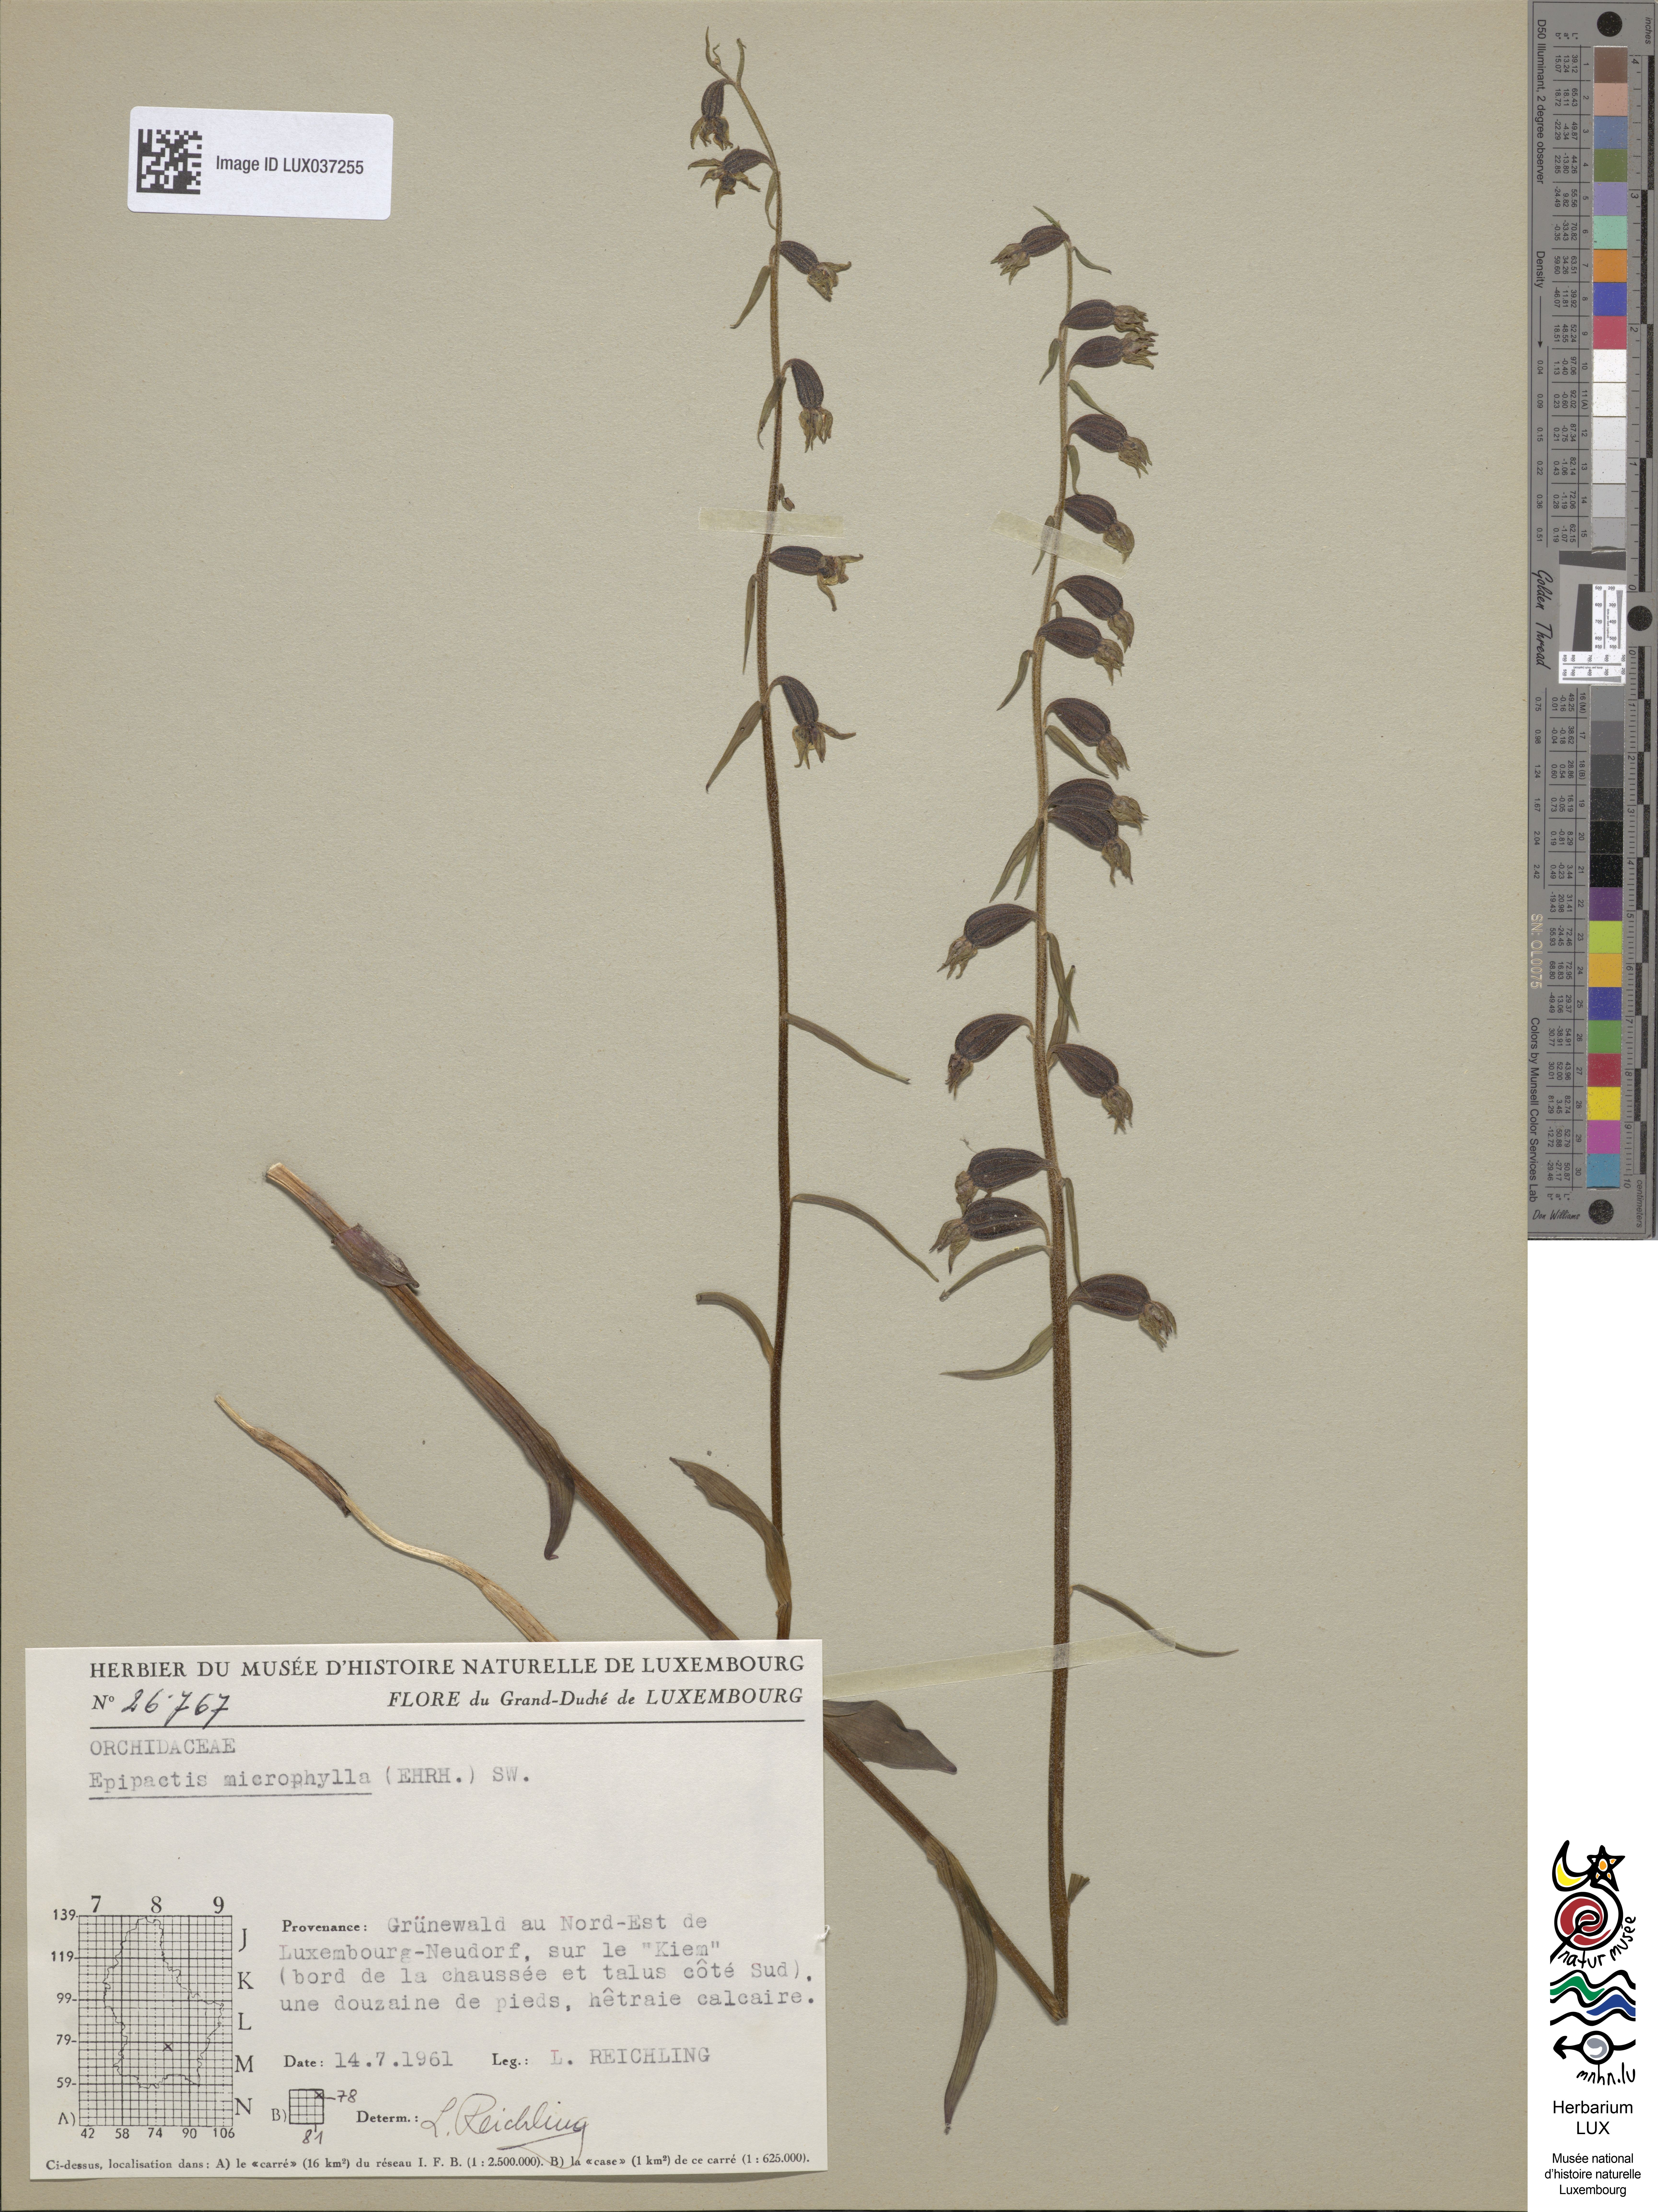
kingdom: Plantae
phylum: Tracheophyta
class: Liliopsida
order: Asparagales
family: Orchidaceae
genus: Epipactis
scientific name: Epipactis microphylla
